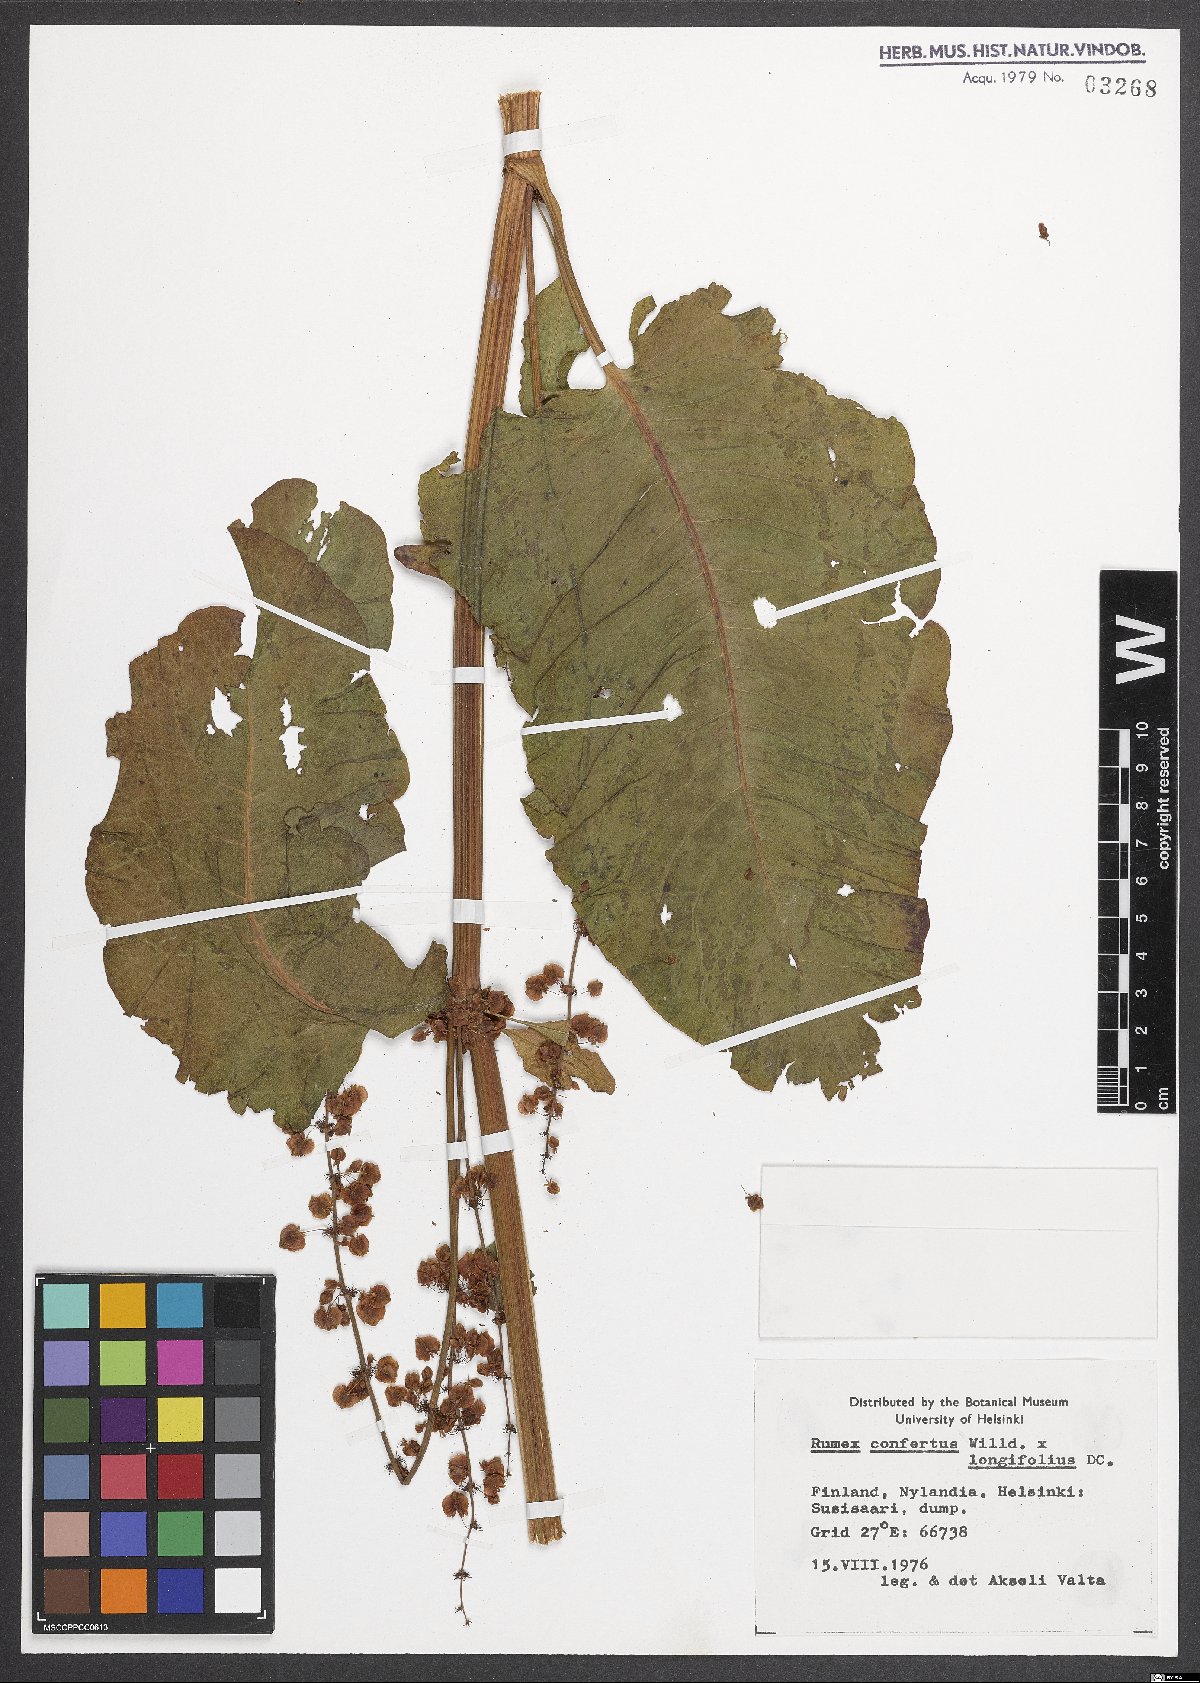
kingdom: Plantae
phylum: Tracheophyta
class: Magnoliopsida
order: Caryophyllales
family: Polygonaceae
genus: Rumex
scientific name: Rumex
